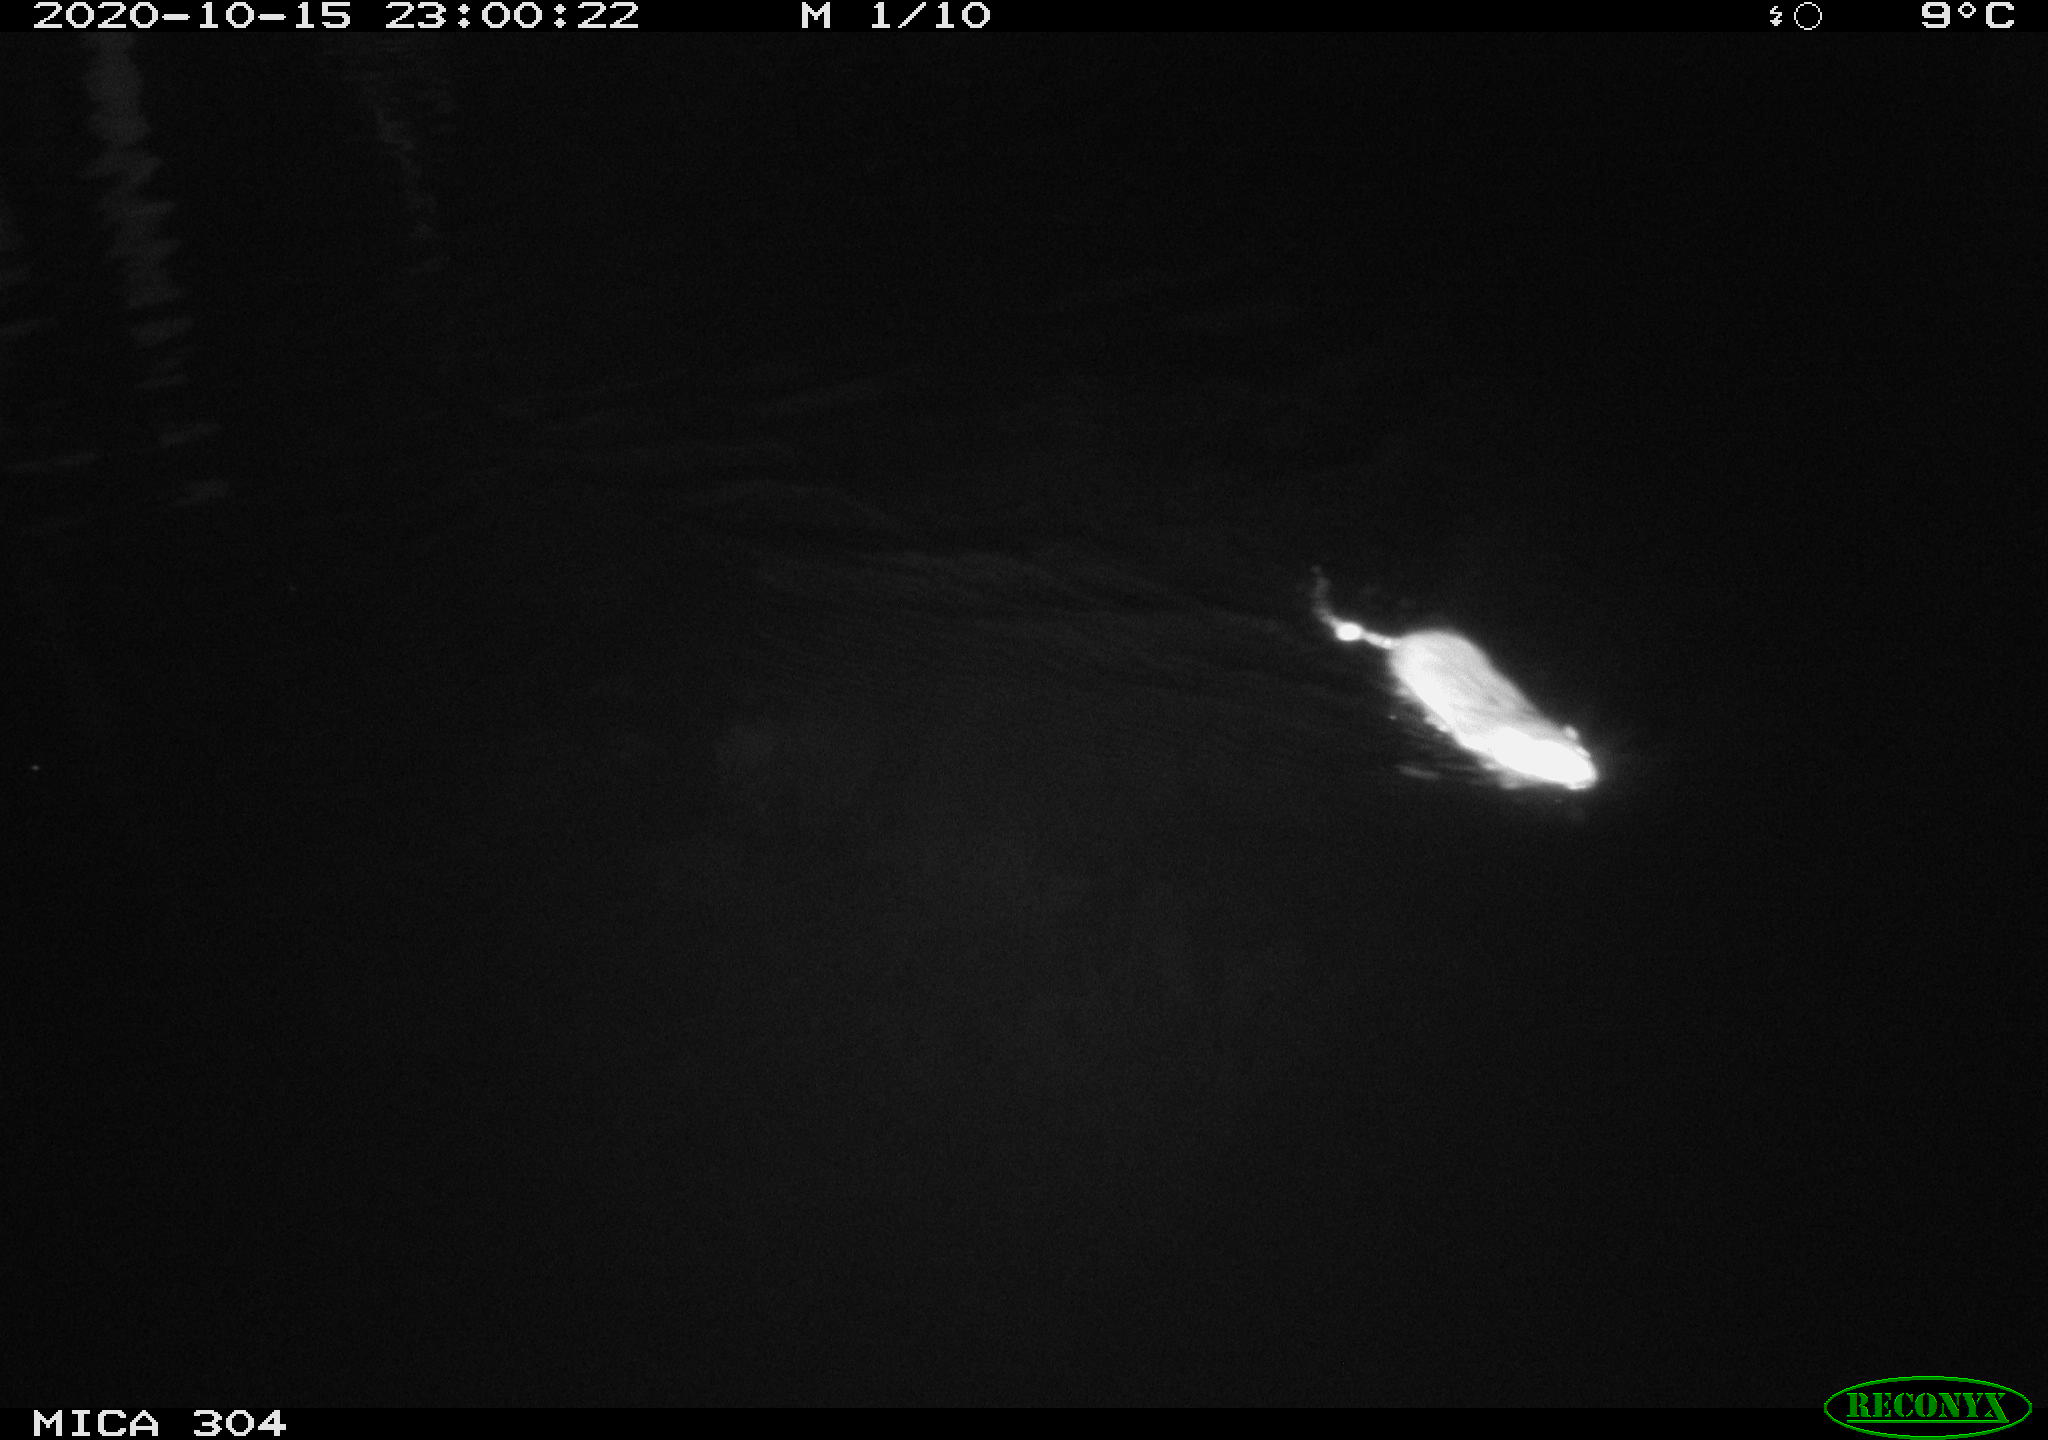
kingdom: Animalia
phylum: Chordata
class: Mammalia
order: Rodentia
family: Cricetidae
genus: Ondatra
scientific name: Ondatra zibethicus
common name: Muskrat
